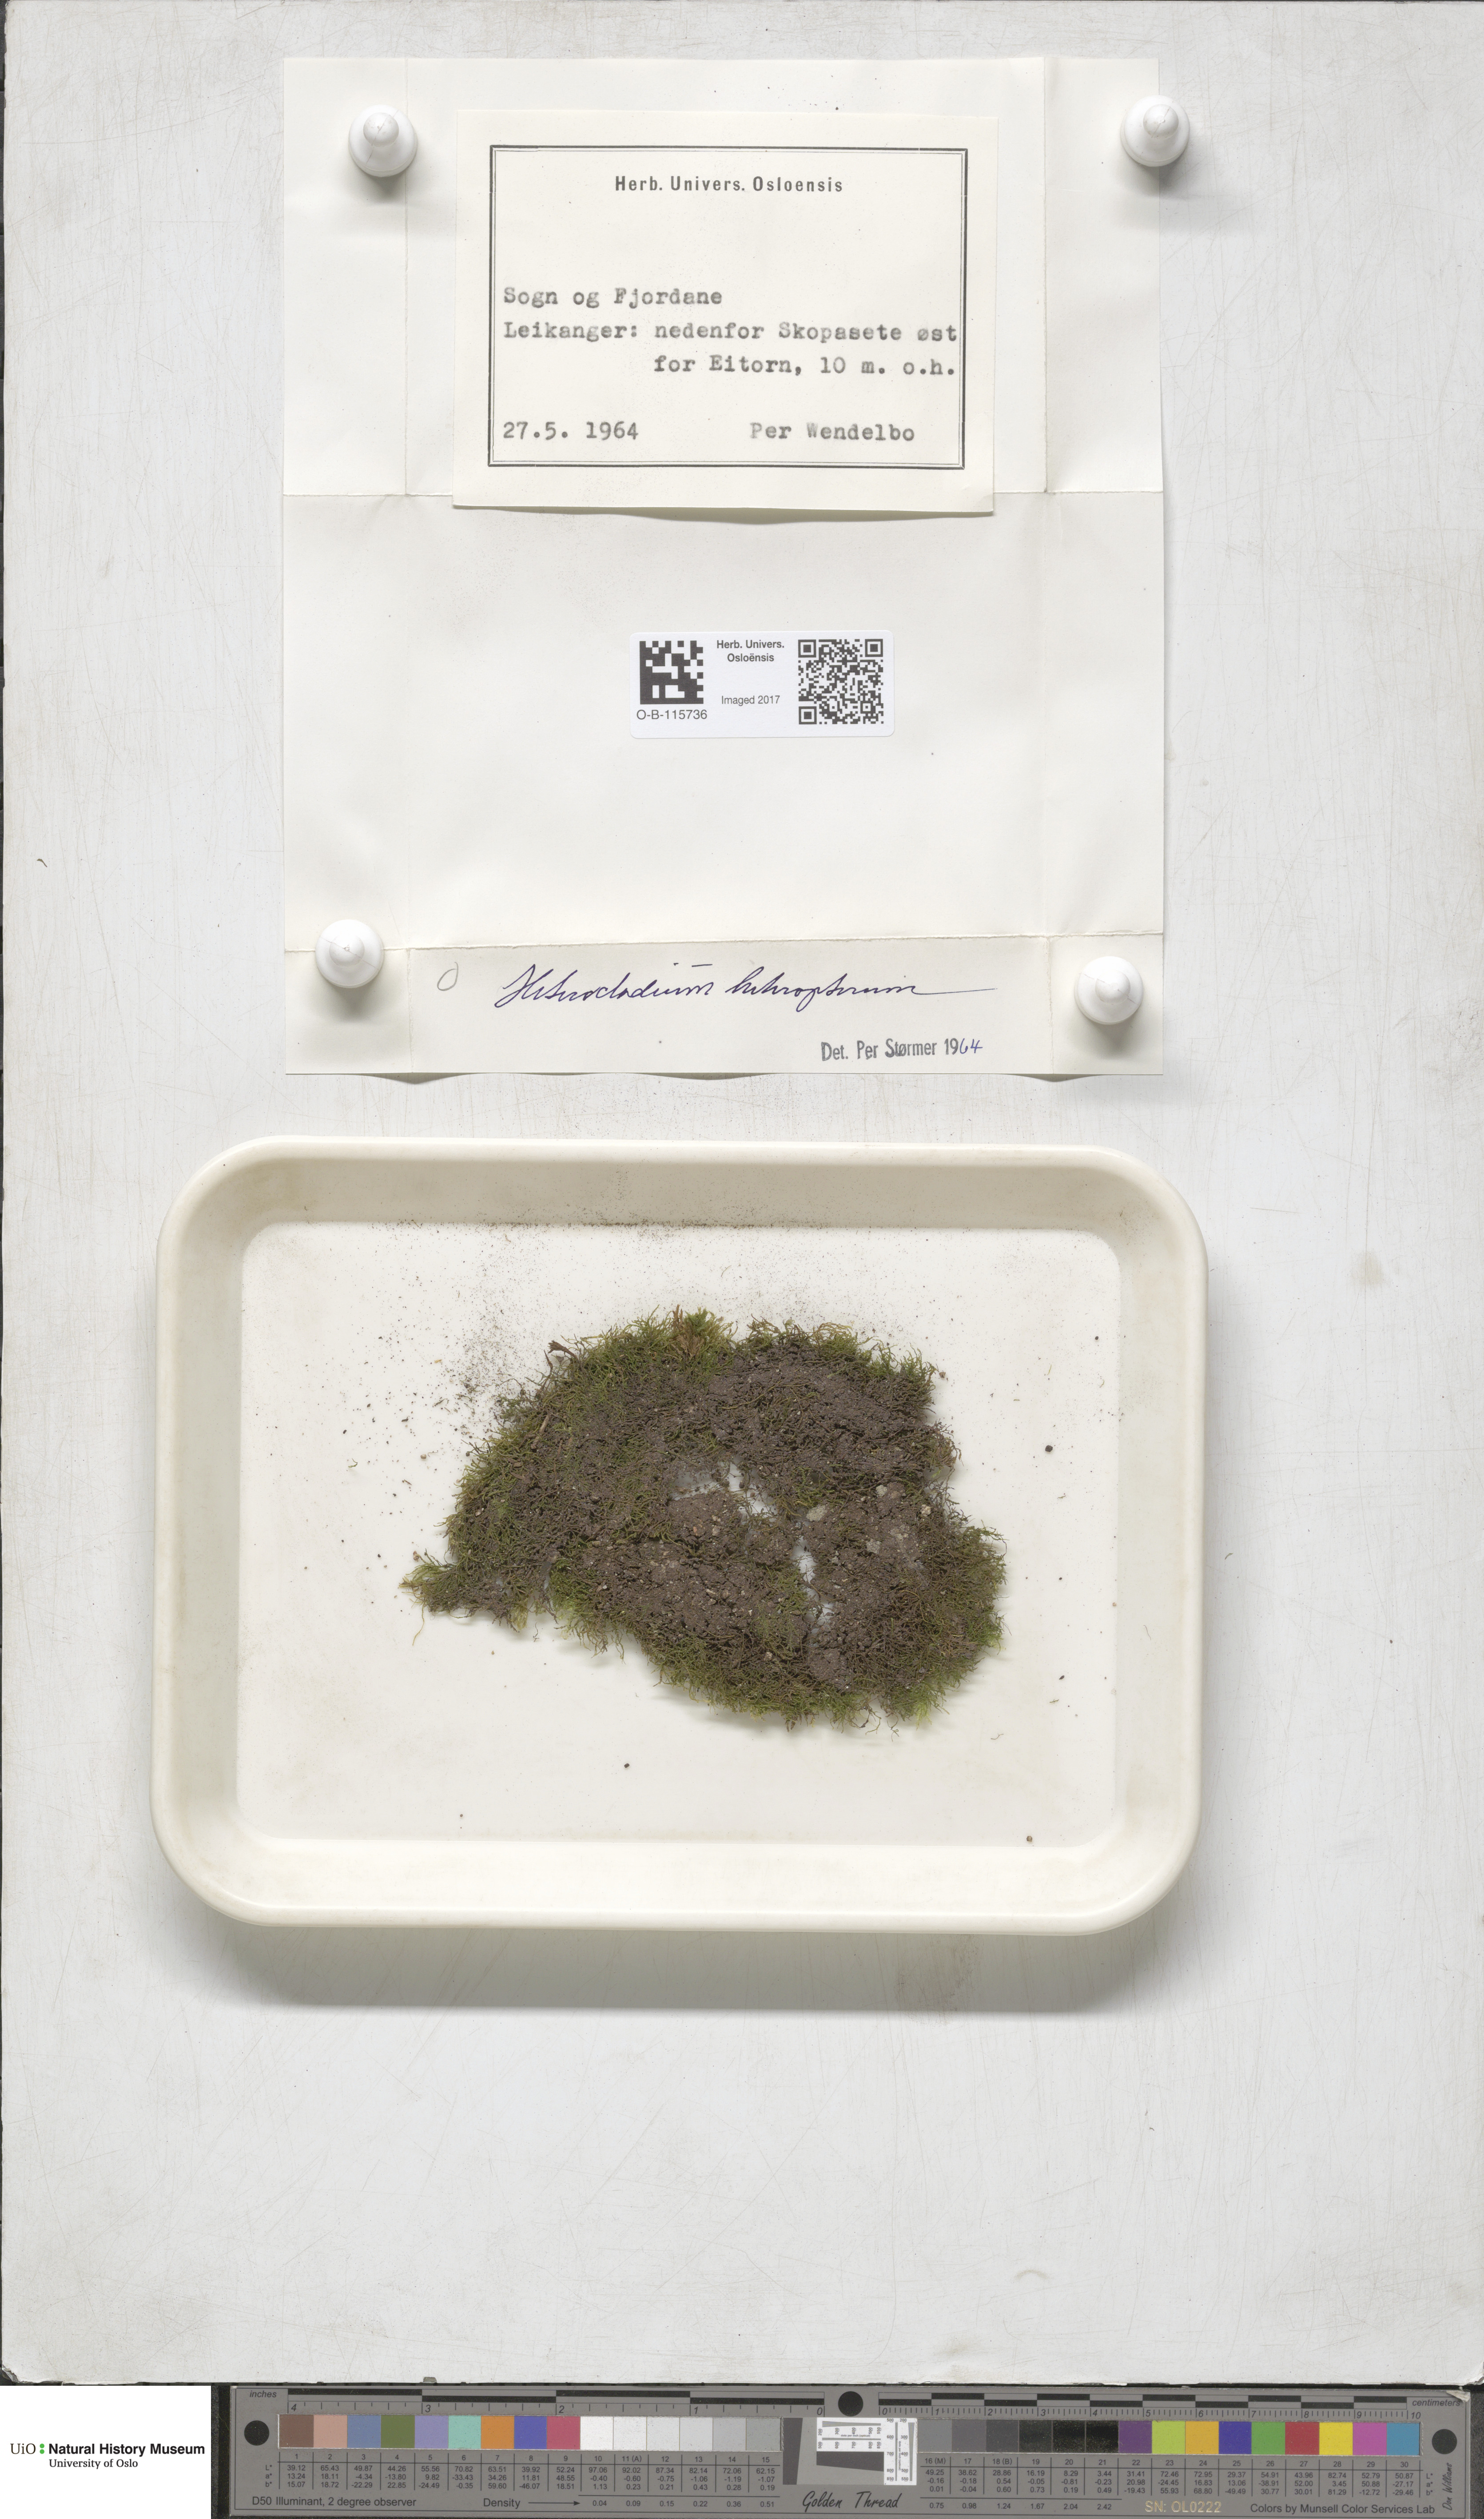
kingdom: Plantae
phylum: Bryophyta
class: Bryopsida
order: Hypnales
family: Lembophyllaceae
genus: Heterocladium
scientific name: Heterocladium heteropterum
